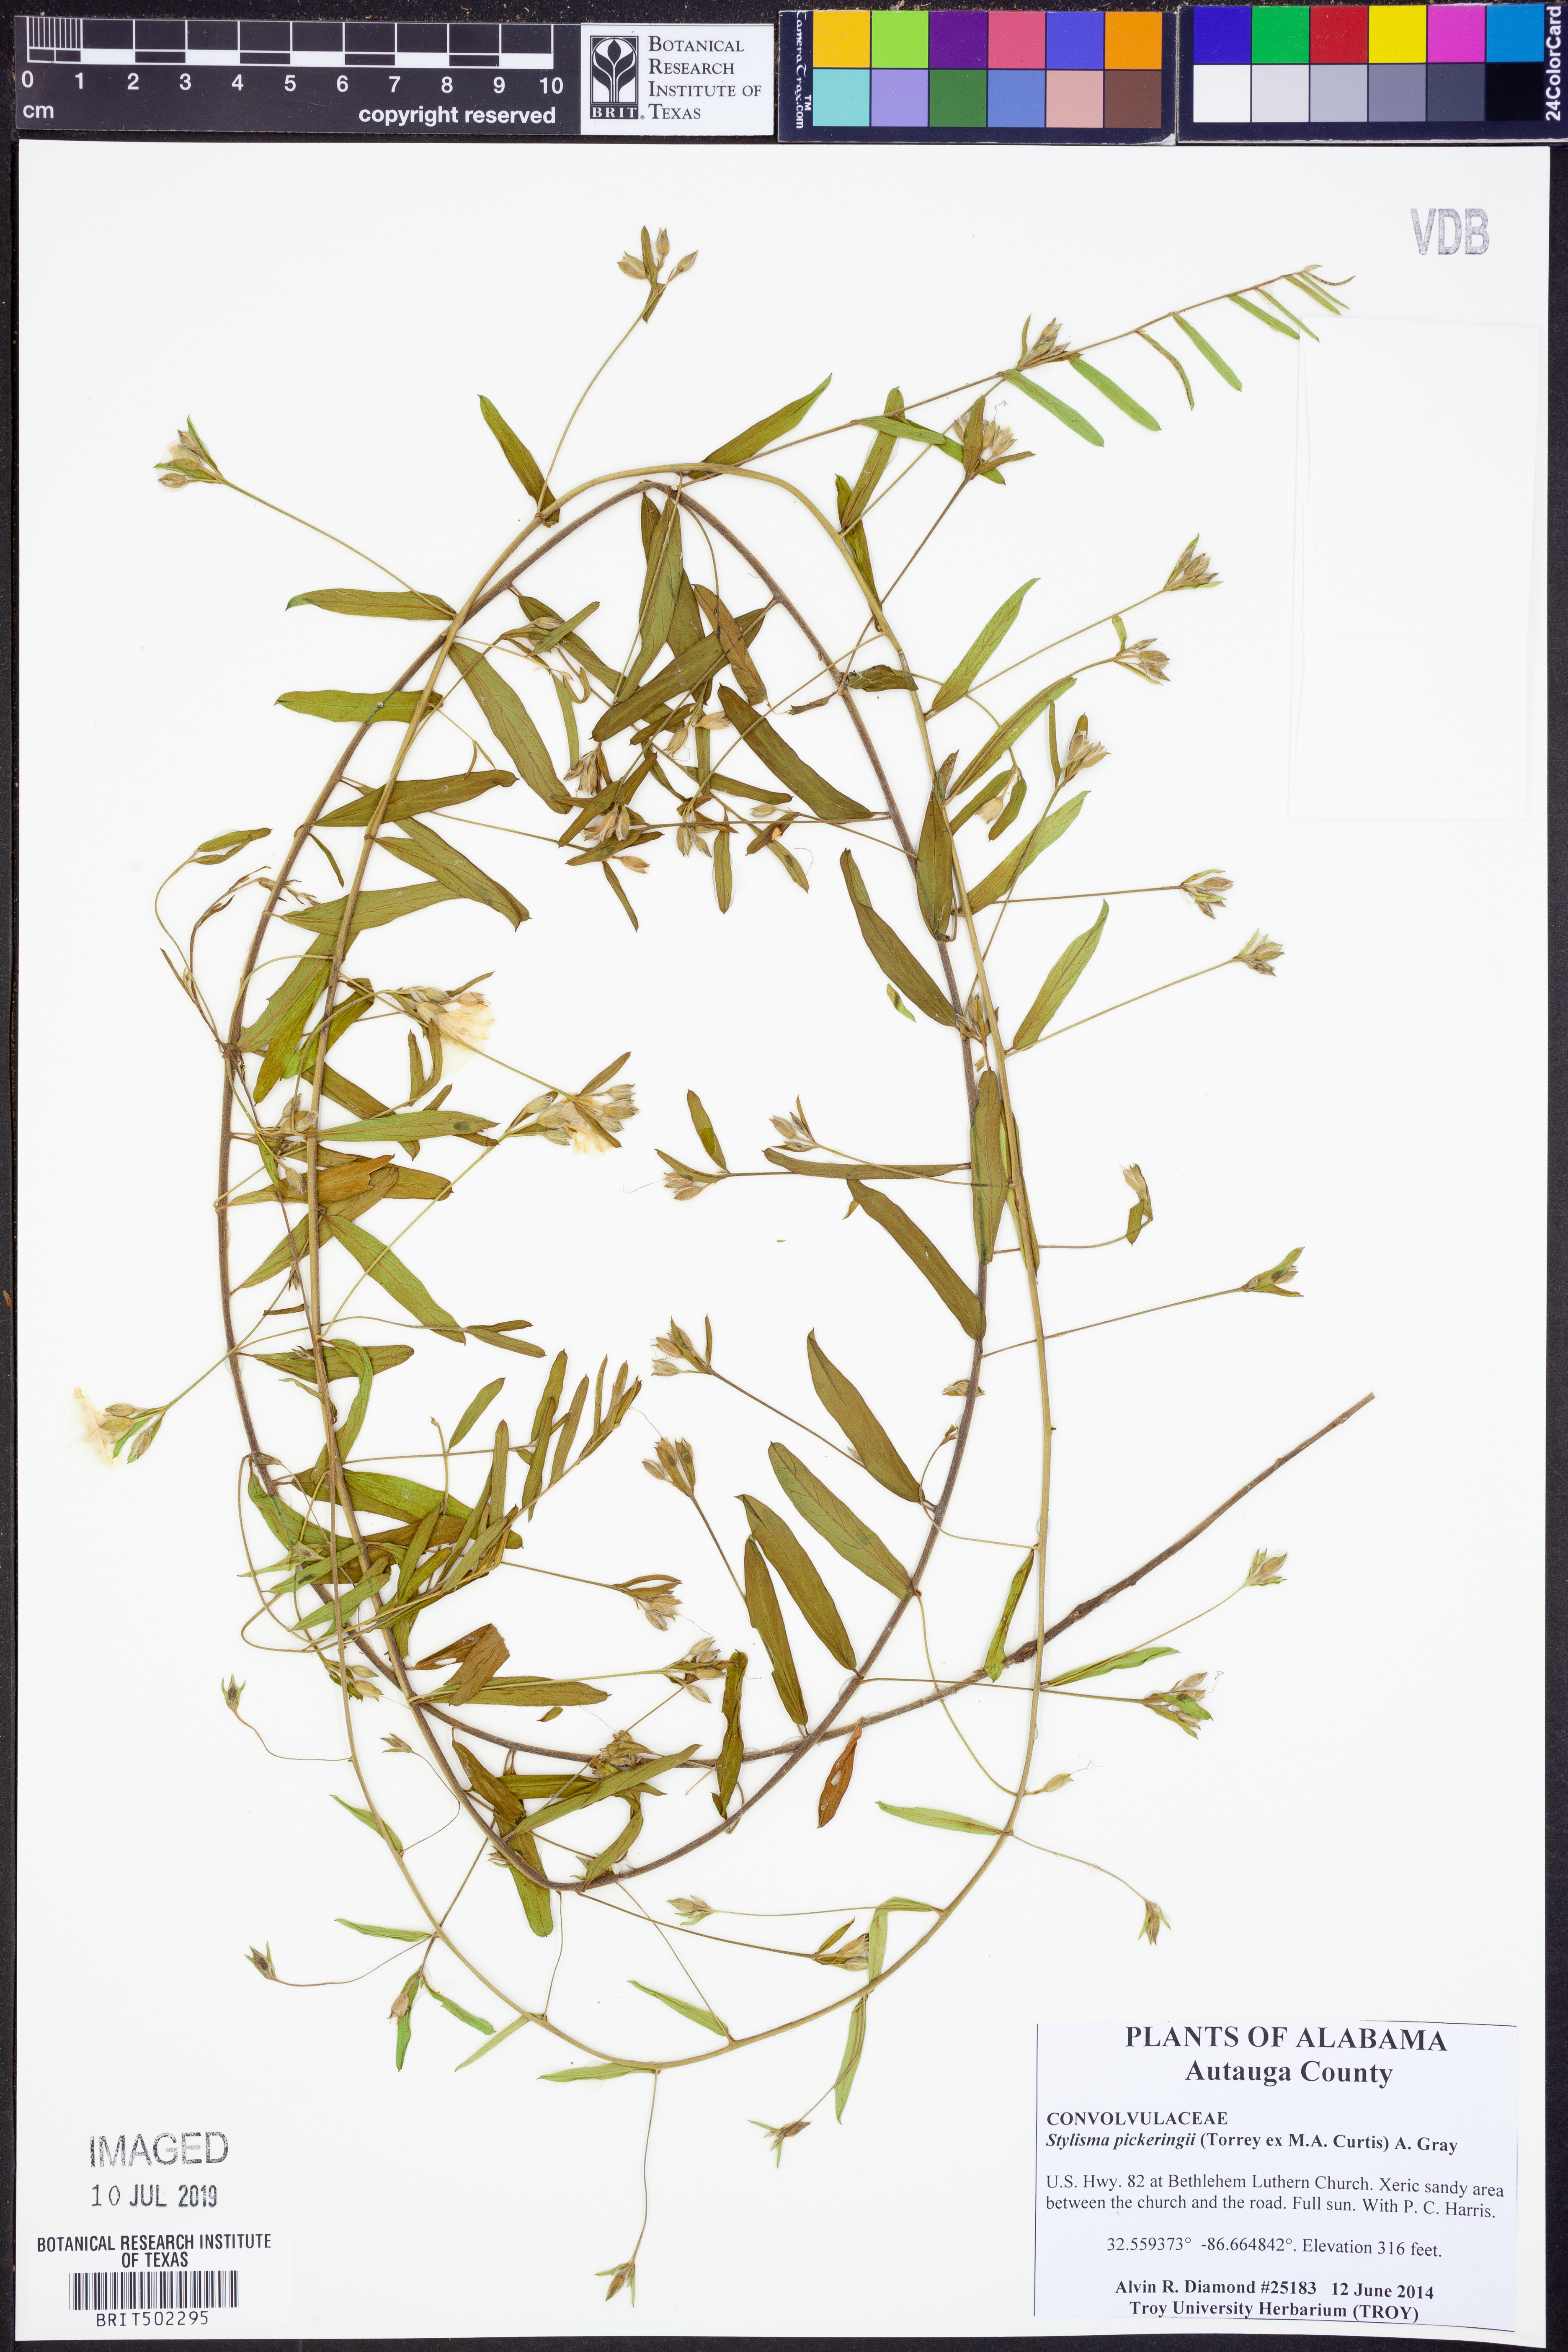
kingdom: Plantae
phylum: Tracheophyta
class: Magnoliopsida
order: Solanales
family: Convolvulaceae
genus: Stylisma
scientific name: Stylisma pickeringii
